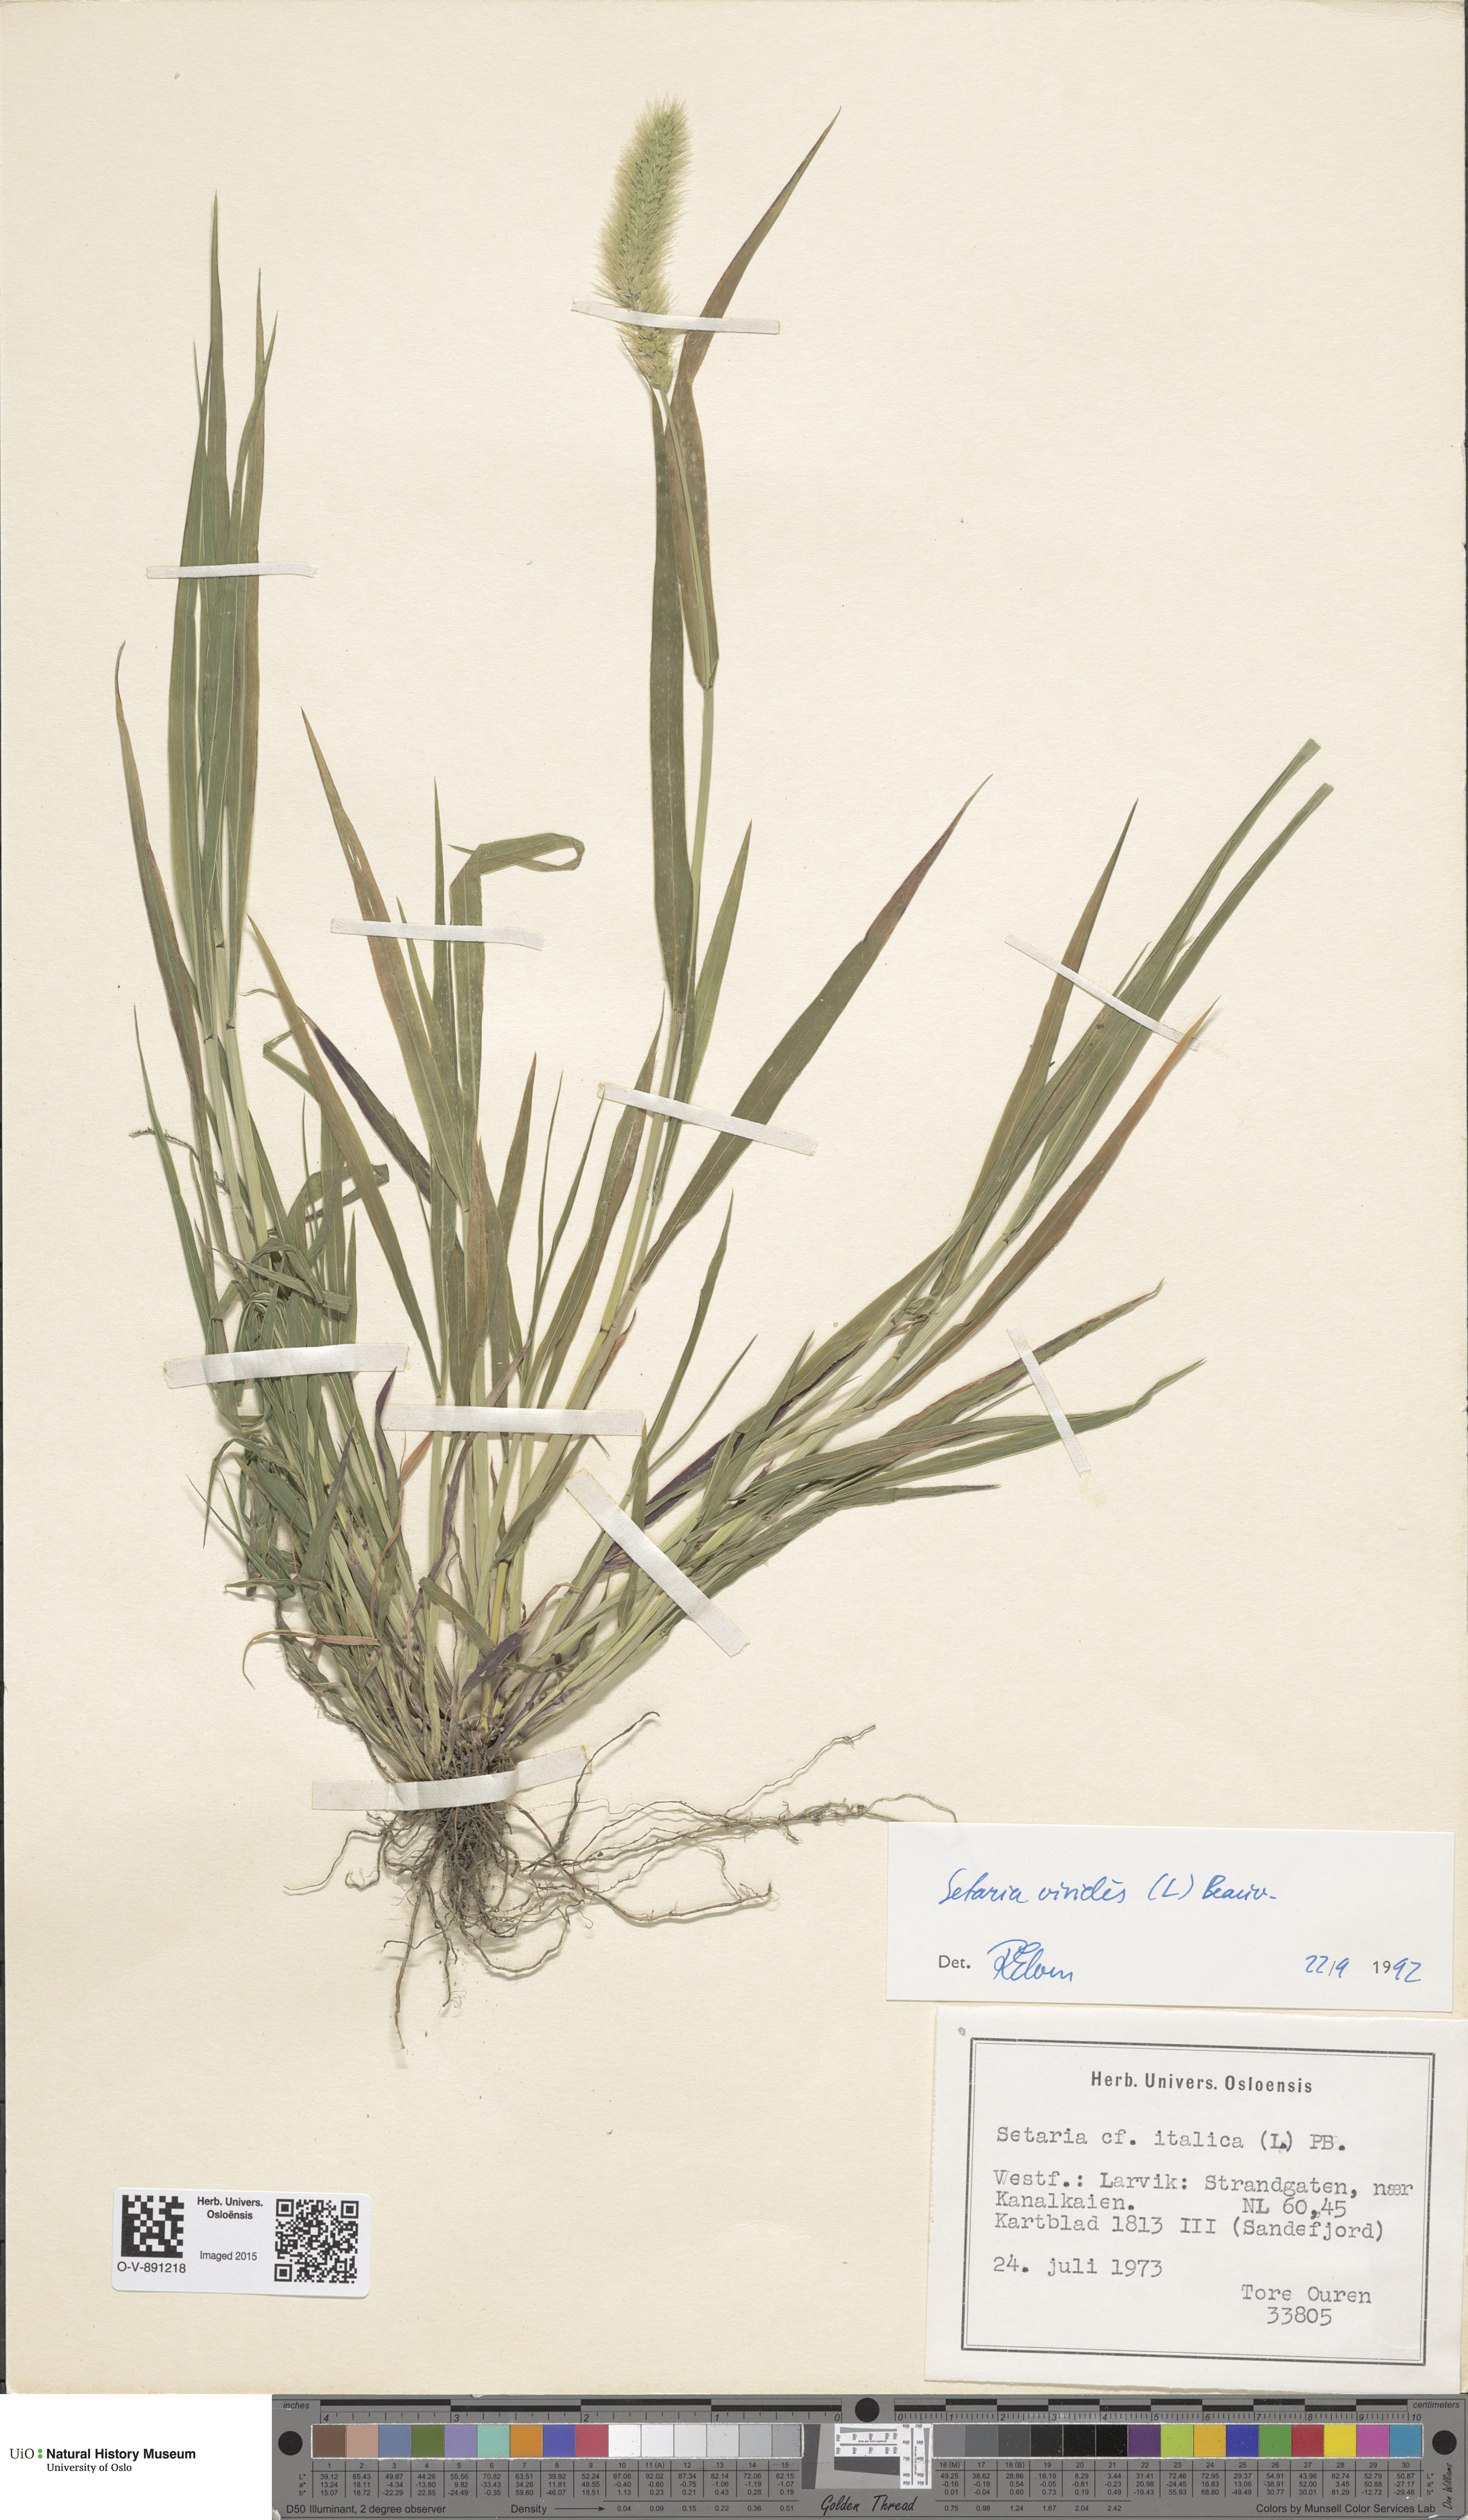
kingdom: Plantae
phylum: Tracheophyta
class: Liliopsida
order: Poales
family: Poaceae
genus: Setaria
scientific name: Setaria viridis
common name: Green bristlegrass
